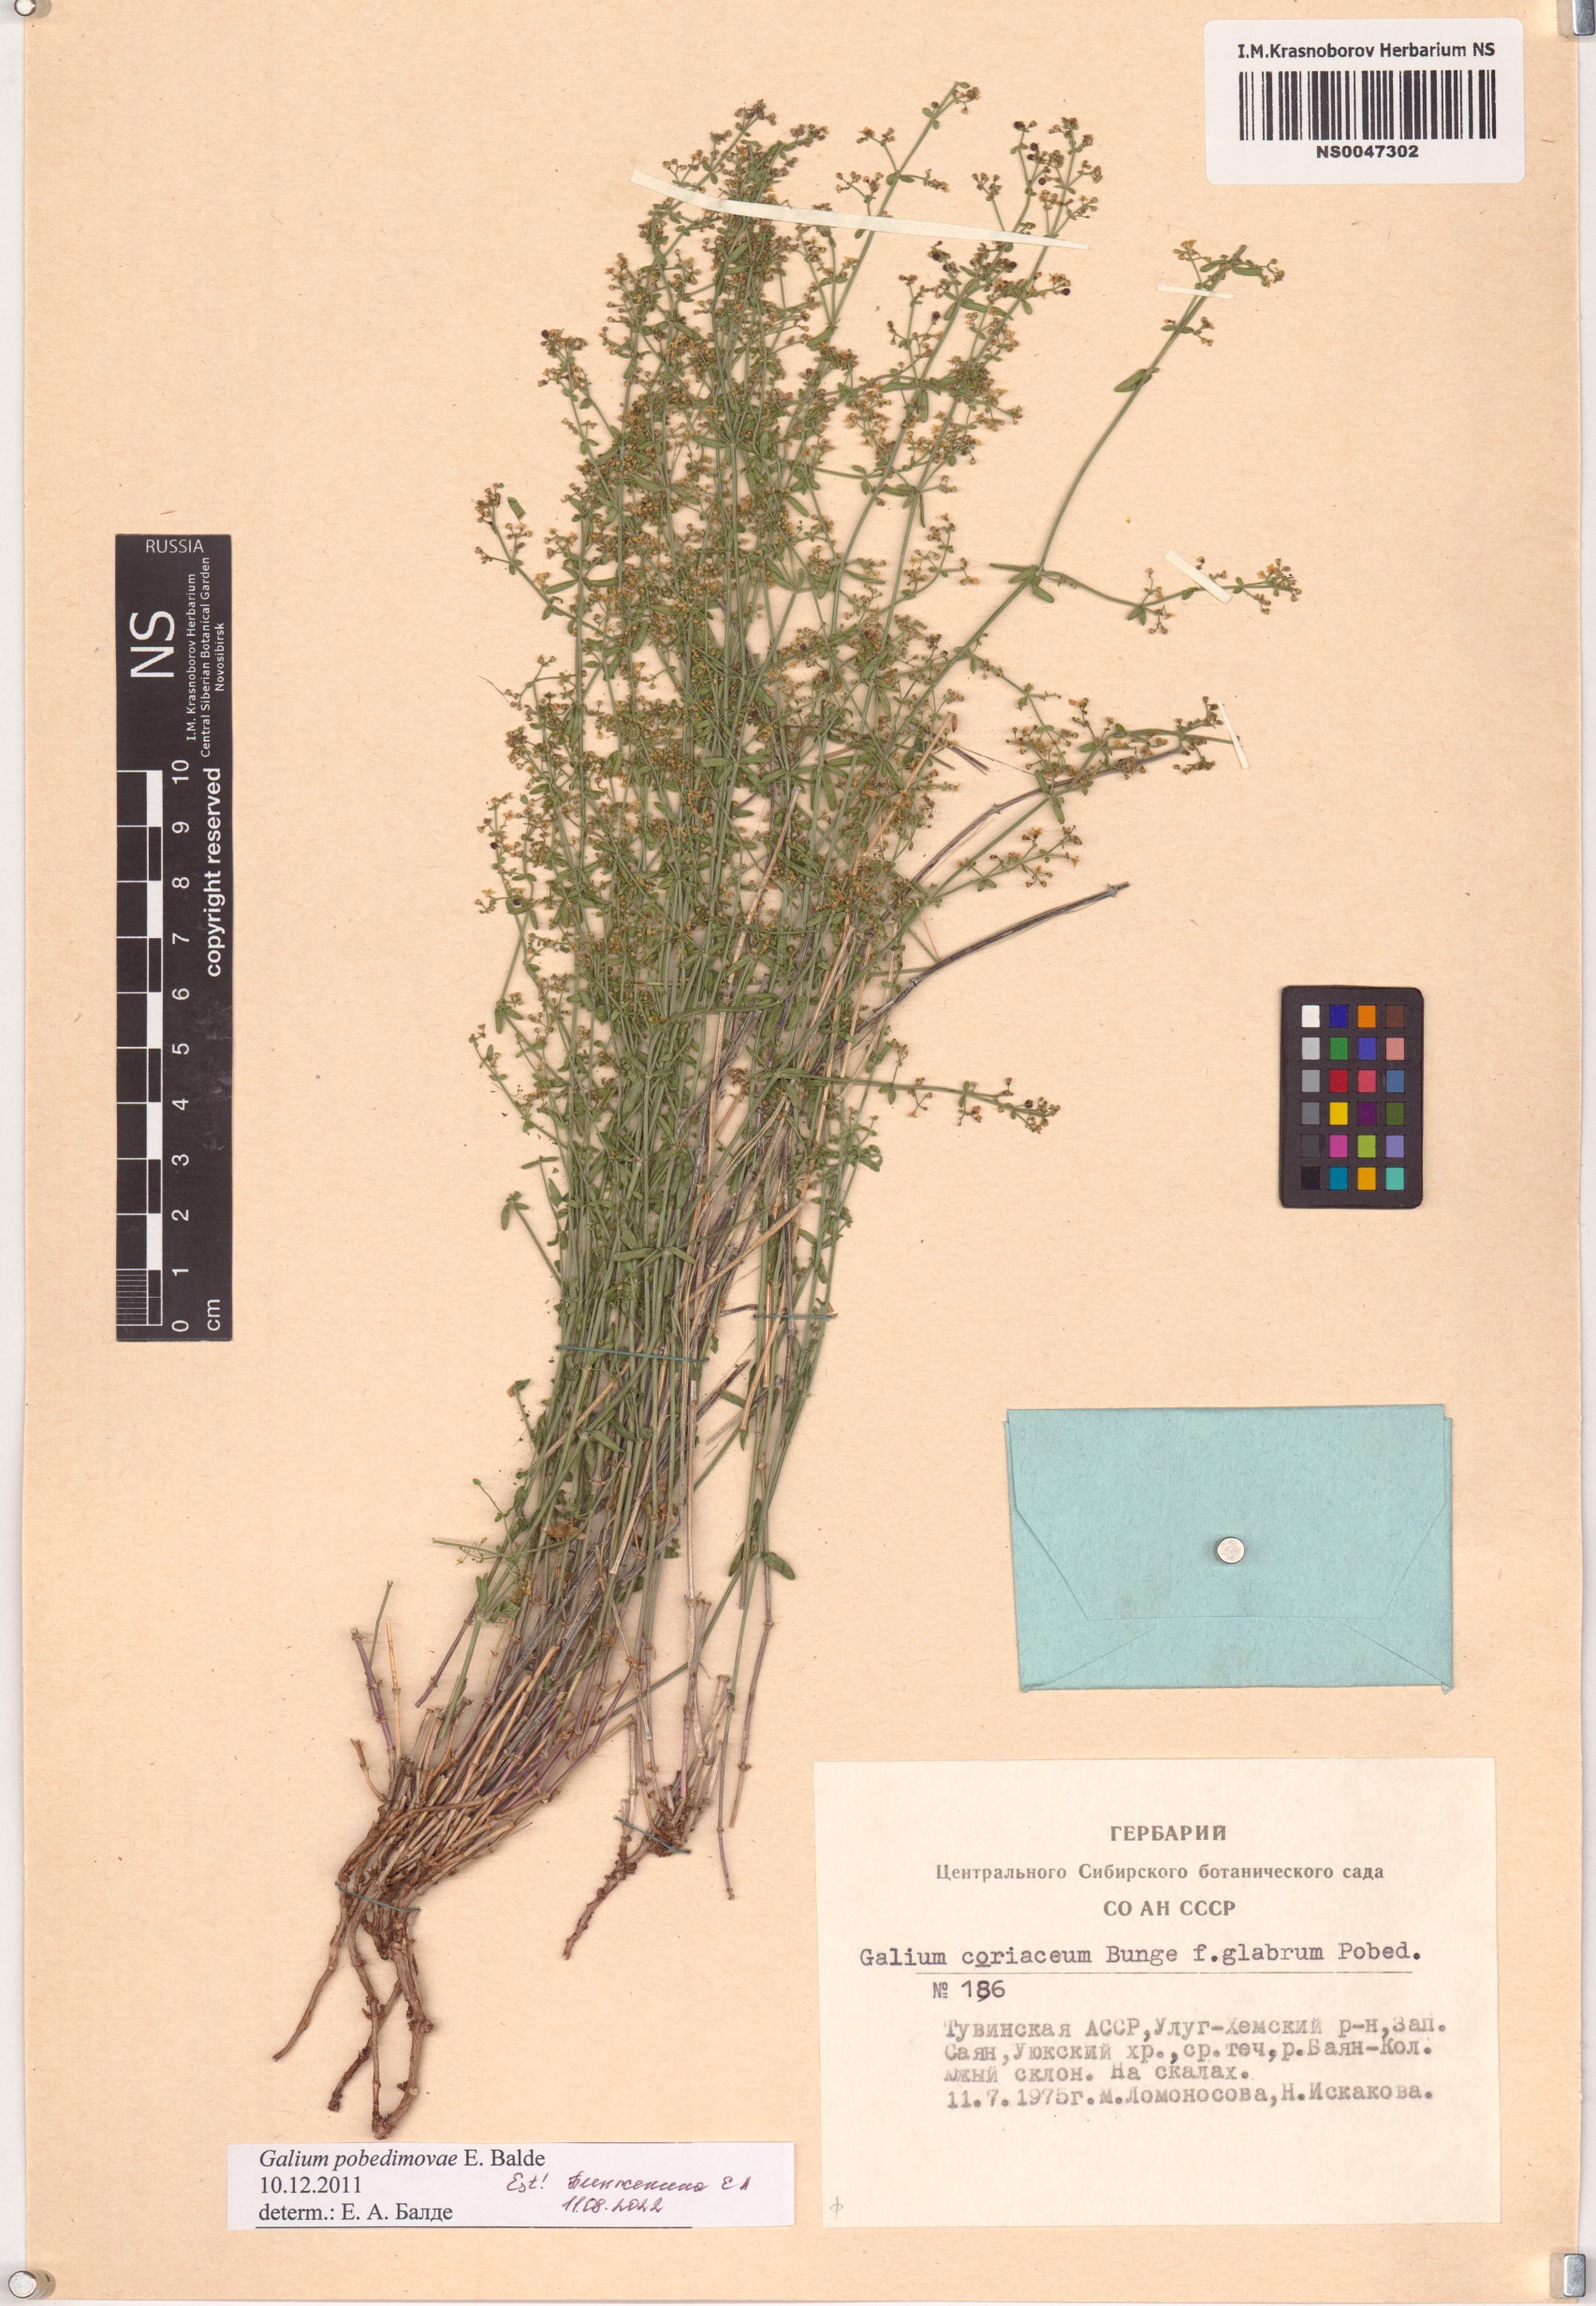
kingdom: Plantae
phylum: Tracheophyta
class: Magnoliopsida
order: Gentianales
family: Rubiaceae
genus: Galium
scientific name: Galium pobedimovae
